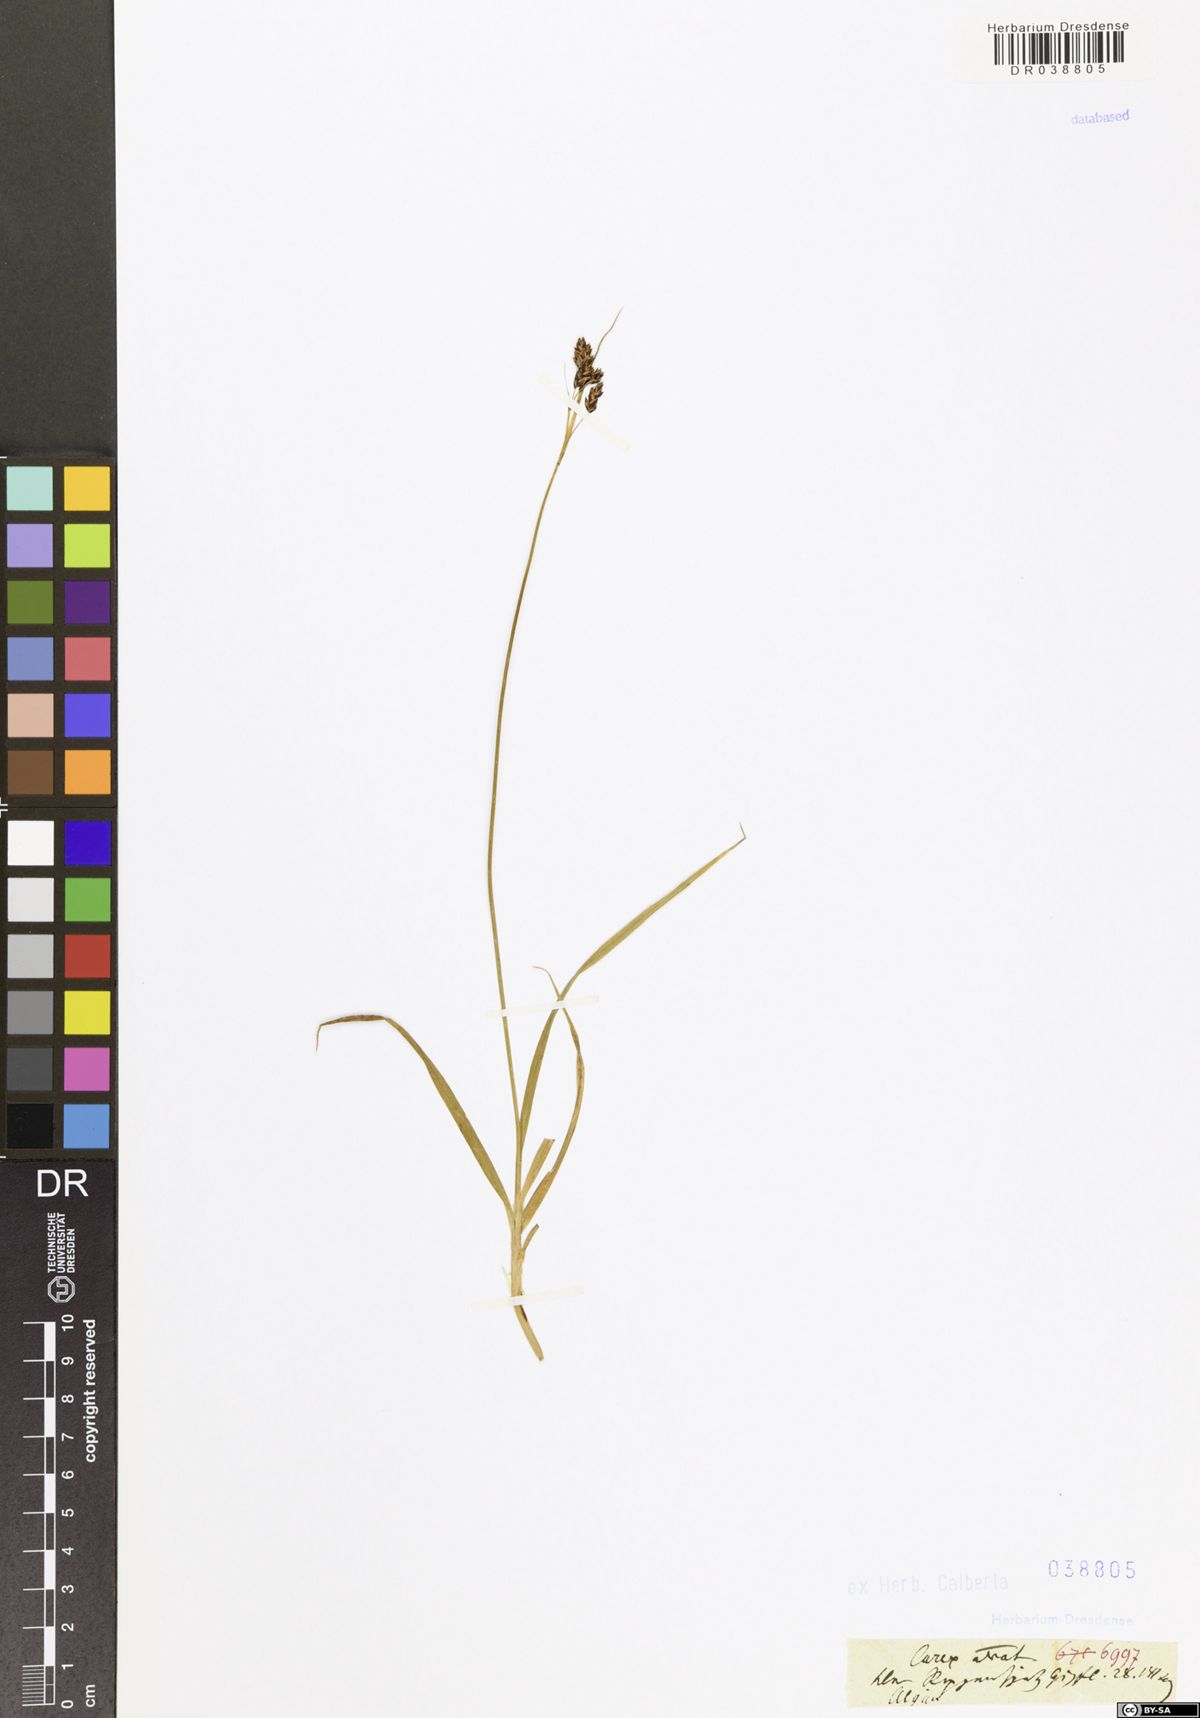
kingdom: Plantae
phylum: Tracheophyta
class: Liliopsida
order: Poales
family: Cyperaceae
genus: Carex
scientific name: Carex atrata
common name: Black alpine sedge
